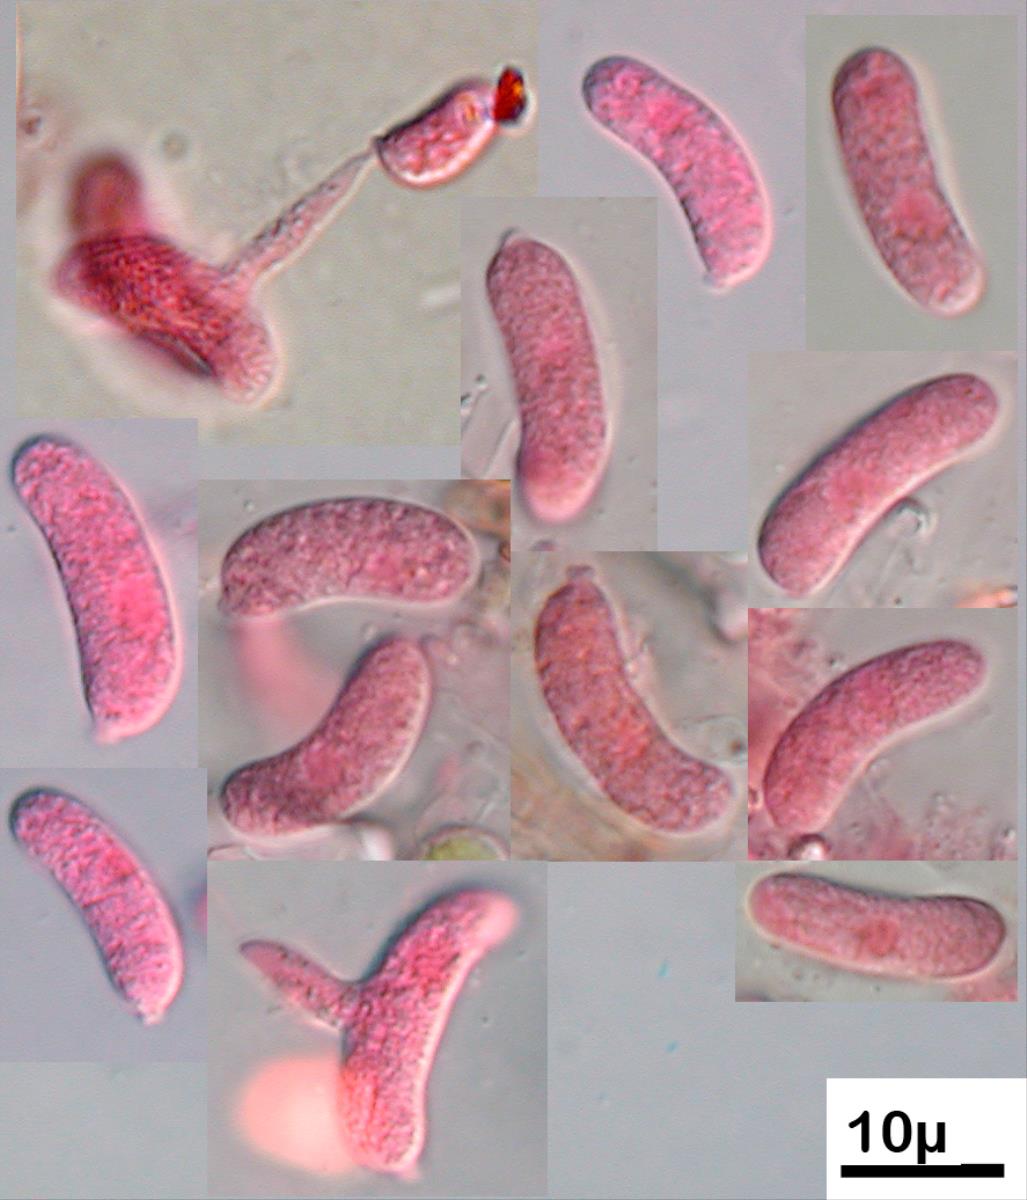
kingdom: Fungi
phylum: Basidiomycota
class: Agaricomycetes
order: Auriculariales
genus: Proterochaete
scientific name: Proterochaete
